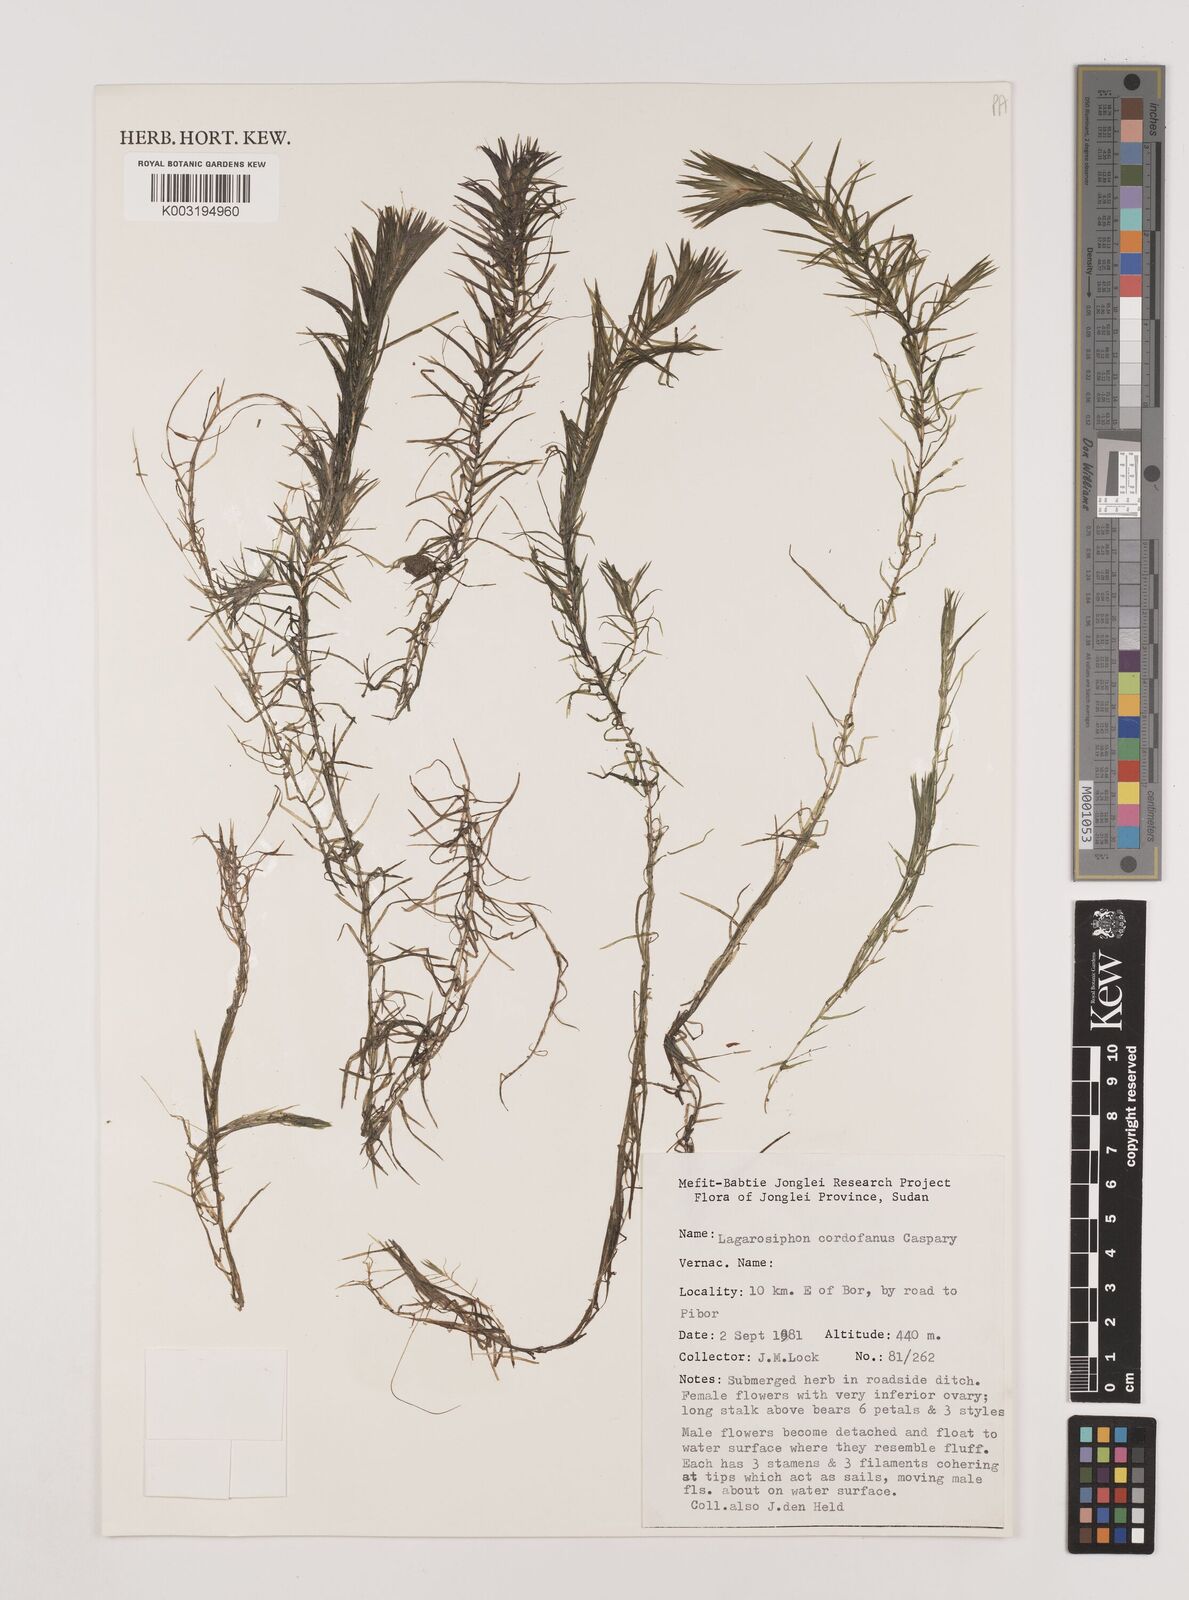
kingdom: Plantae
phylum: Tracheophyta
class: Liliopsida
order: Alismatales
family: Hydrocharitaceae
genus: Lagarosiphon
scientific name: Lagarosiphon cordofanus
